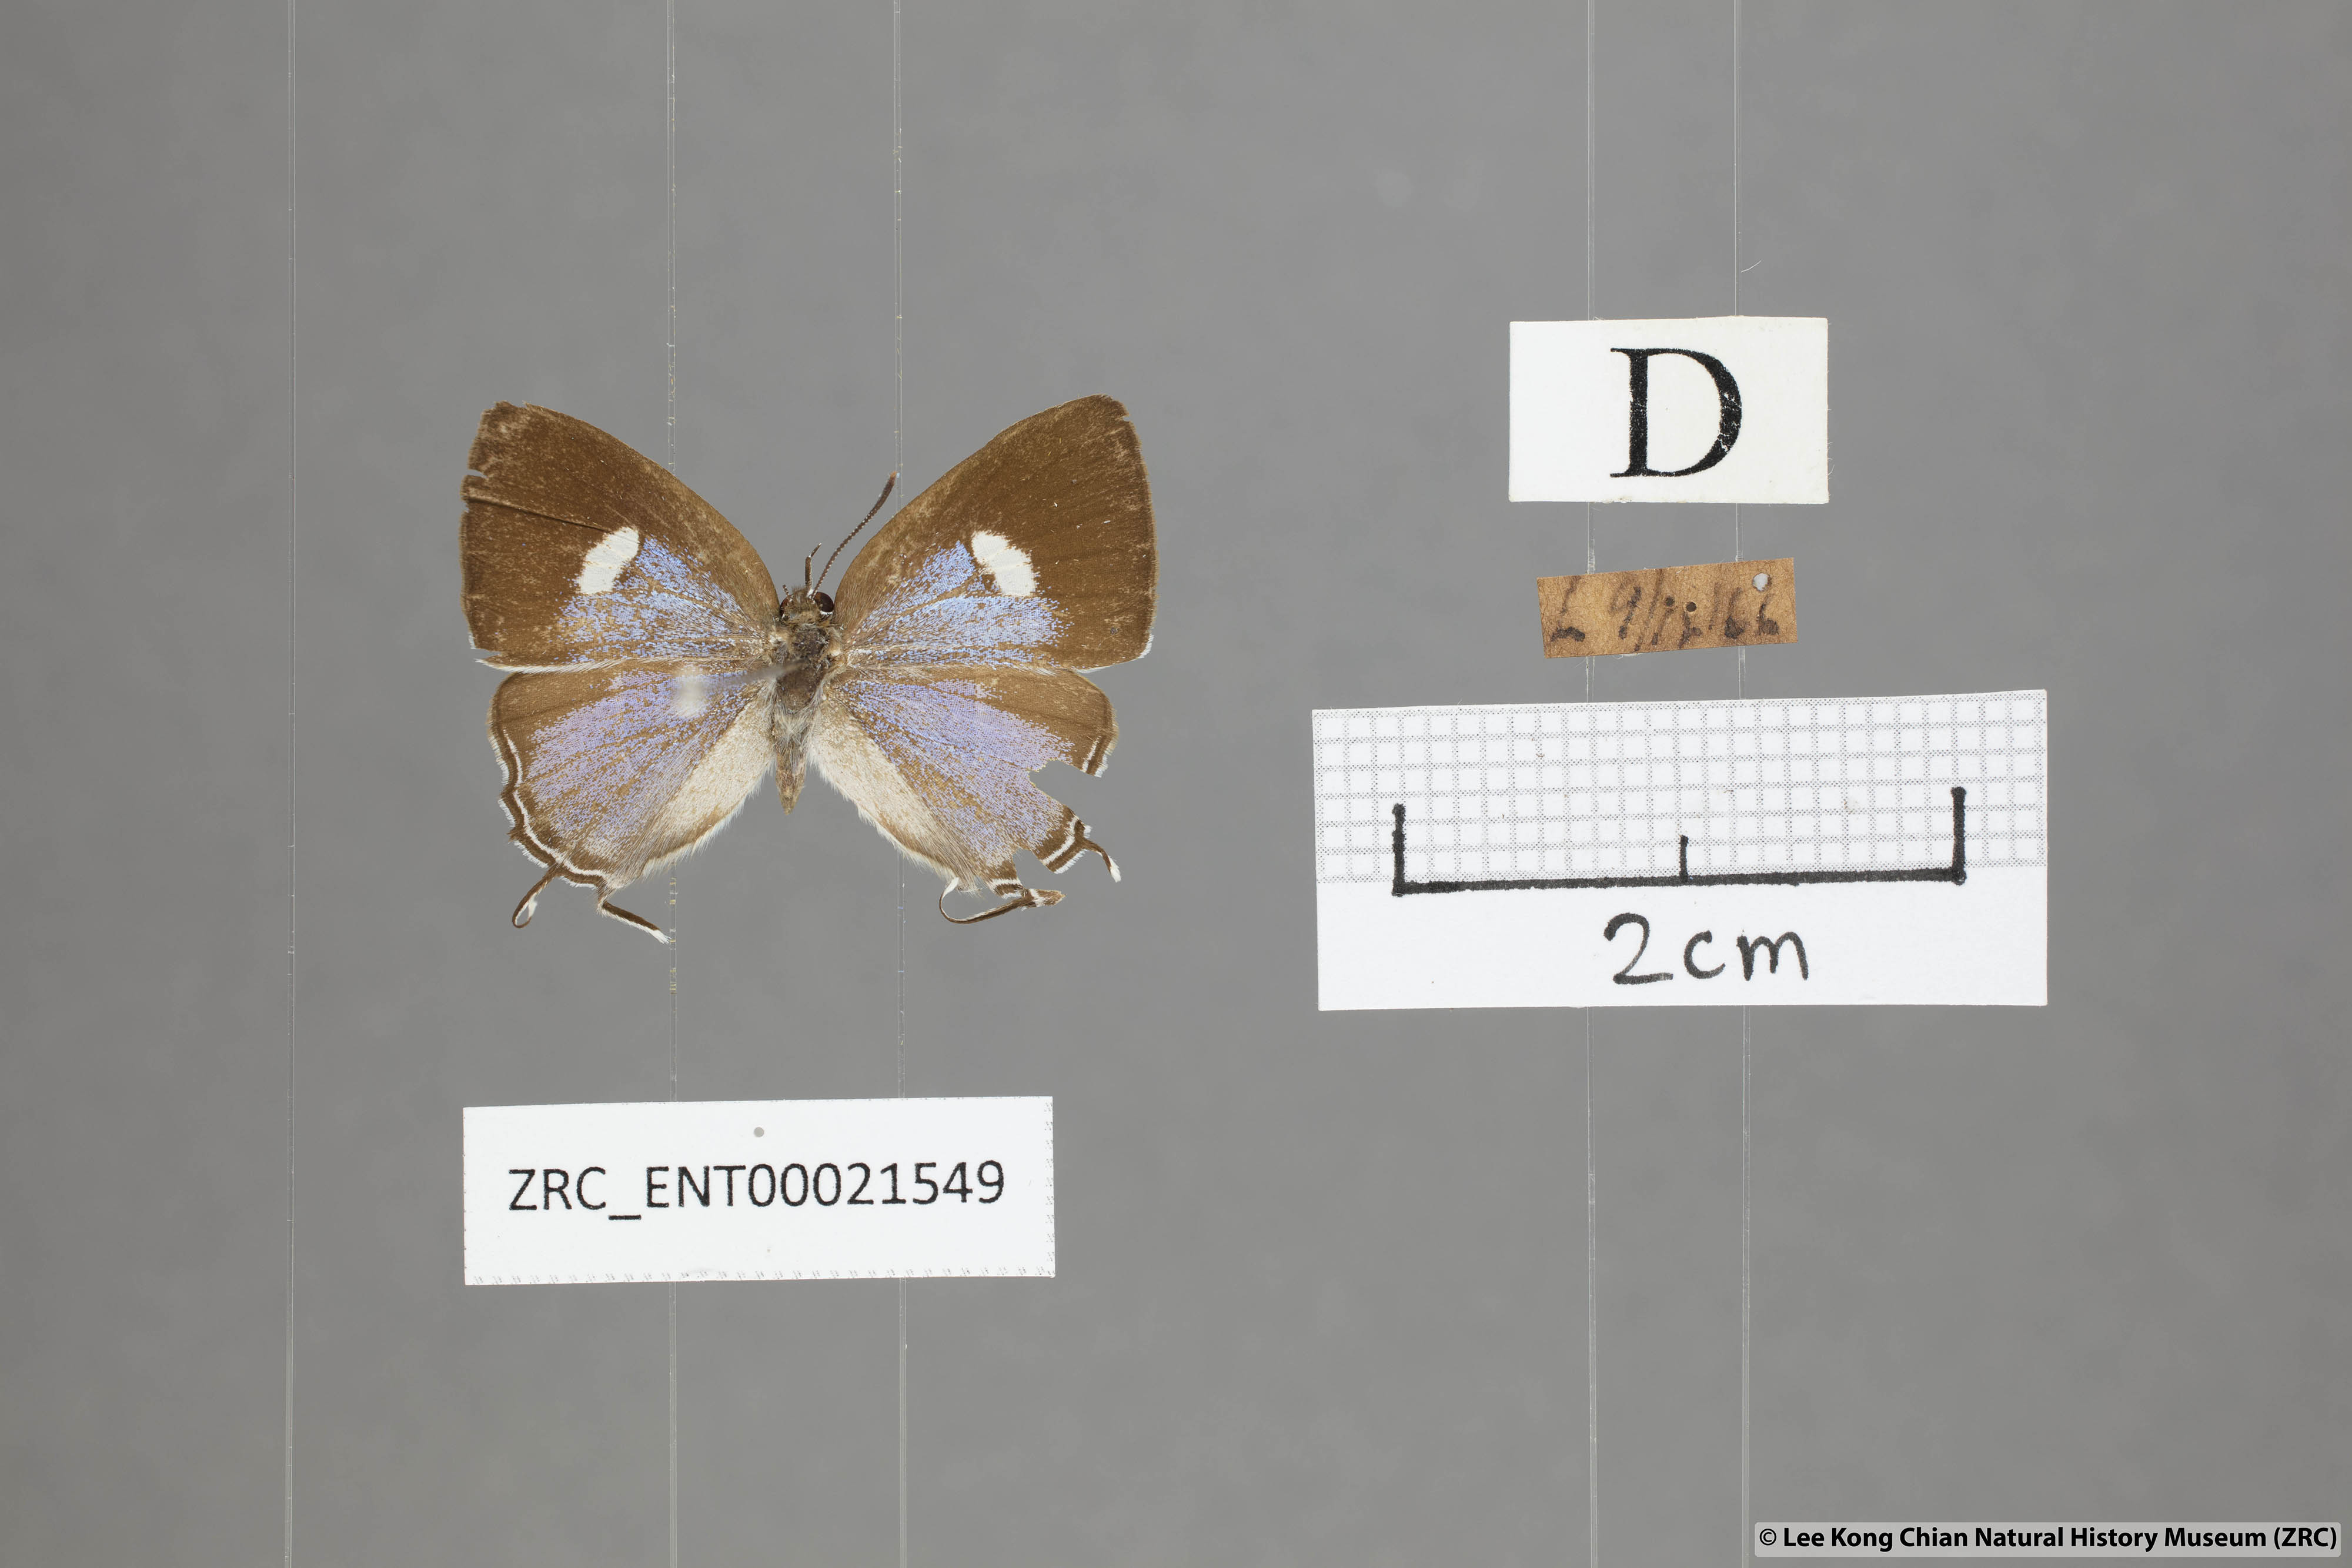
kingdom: Animalia
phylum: Arthropoda
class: Insecta
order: Lepidoptera
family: Lycaenidae
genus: Horaga
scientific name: Horaga syrinx
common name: Ambon onyx
